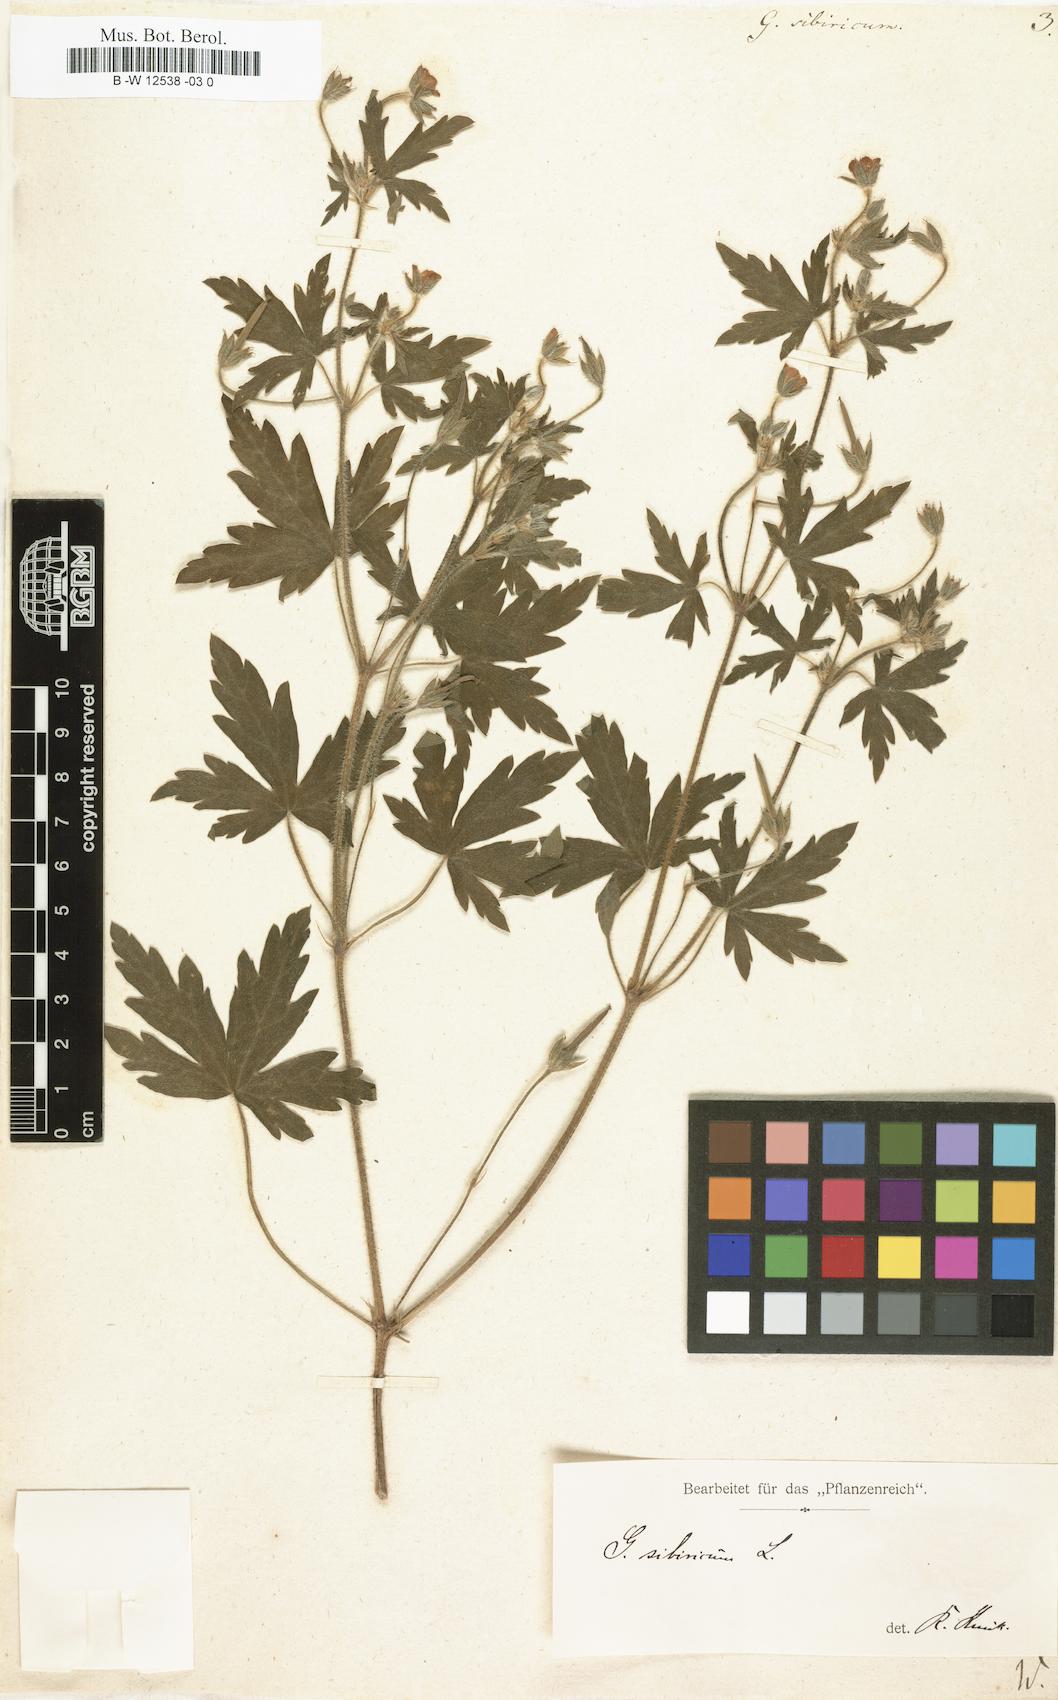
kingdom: Plantae
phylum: Tracheophyta
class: Magnoliopsida
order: Geraniales
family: Geraniaceae
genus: Geranium
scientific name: Geranium sibiricum
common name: Siberian crane's-bill
